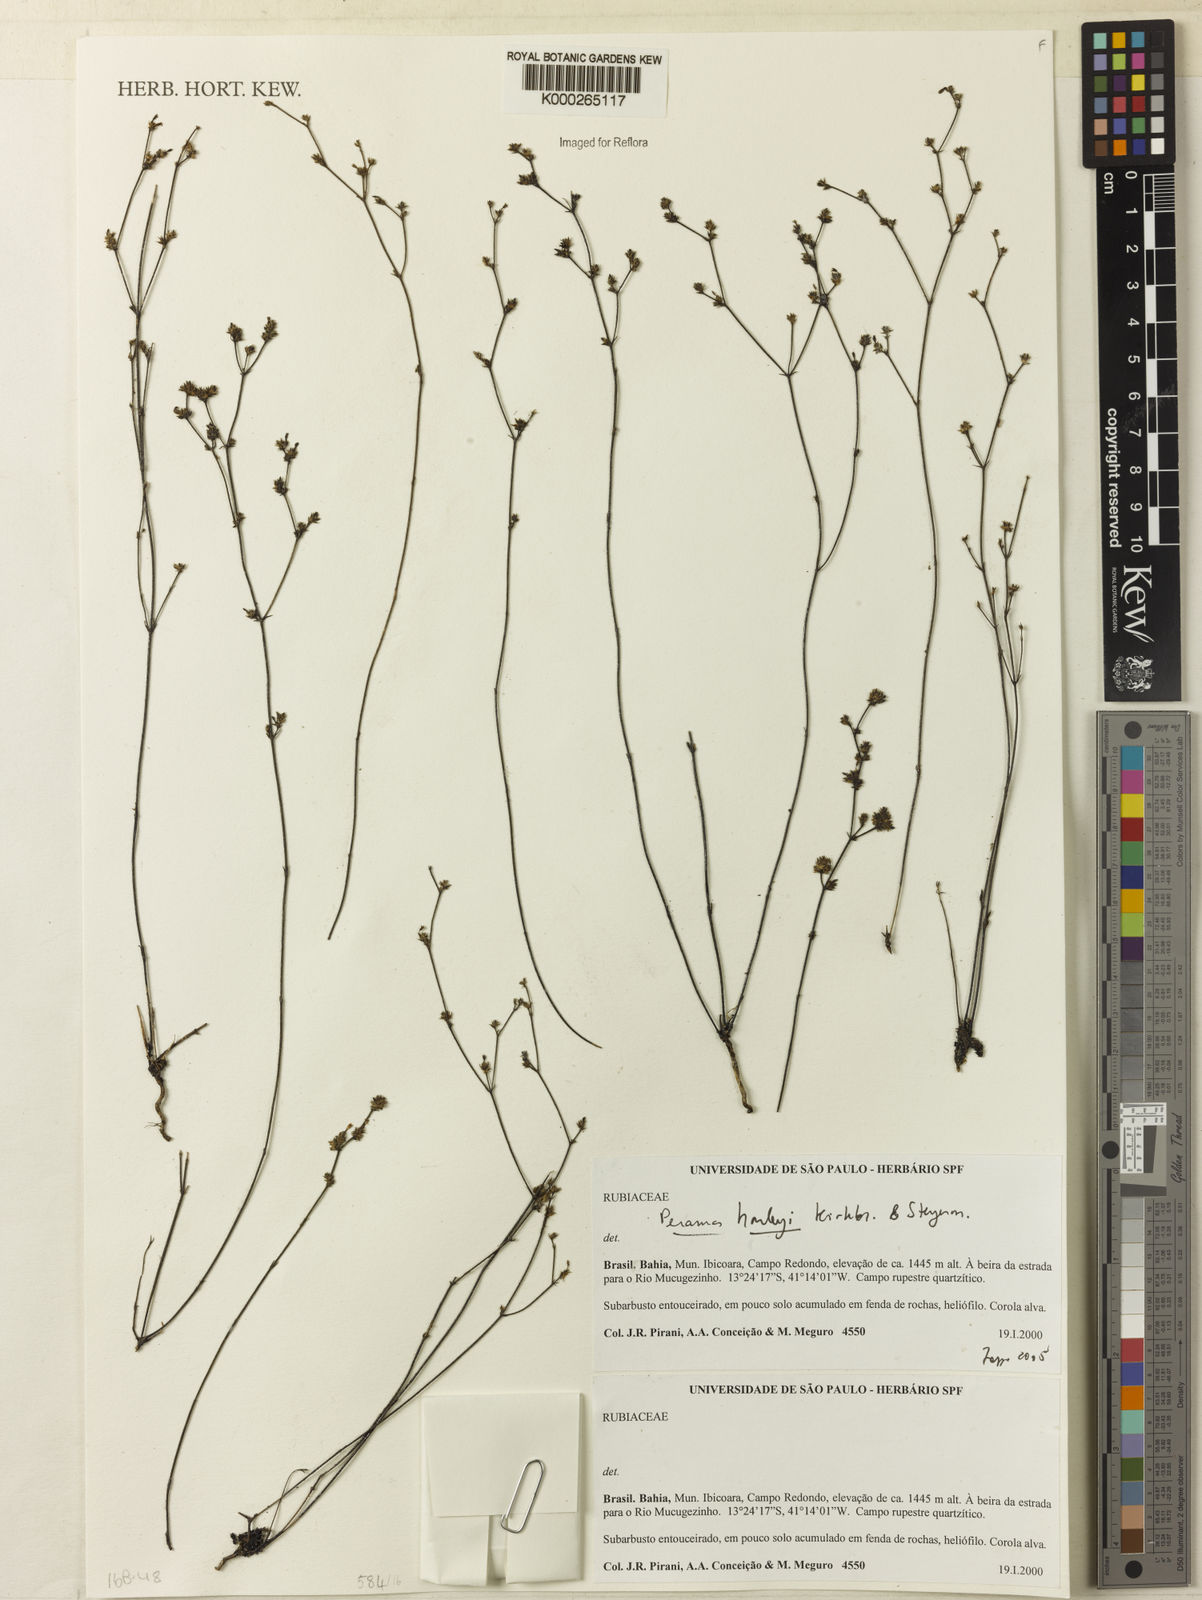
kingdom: Plantae
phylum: Tracheophyta
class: Magnoliopsida
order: Gentianales
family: Rubiaceae
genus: Perama
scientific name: Perama harleyi
